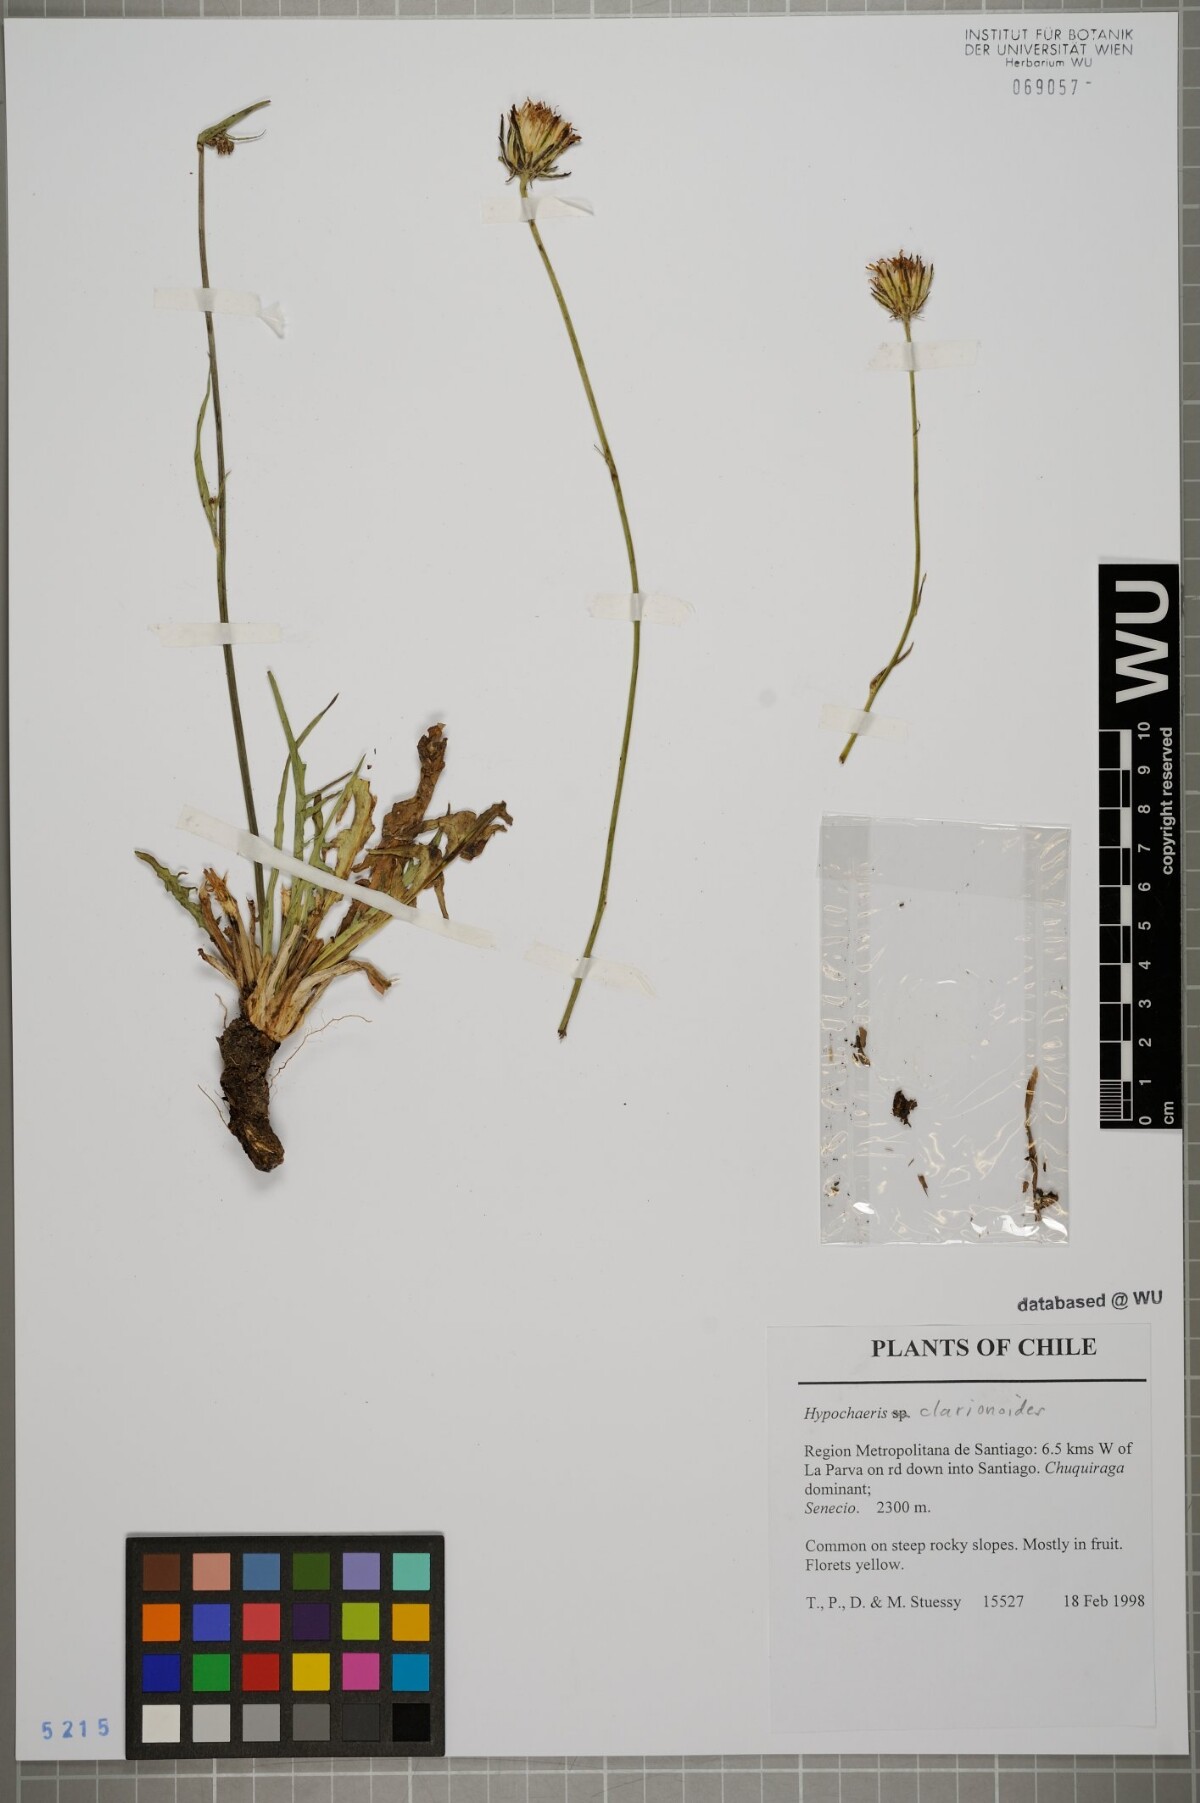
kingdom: Plantae
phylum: Tracheophyta
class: Magnoliopsida
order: Asterales
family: Asteraceae
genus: Hypochaeris
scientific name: Hypochaeris clarionoides
